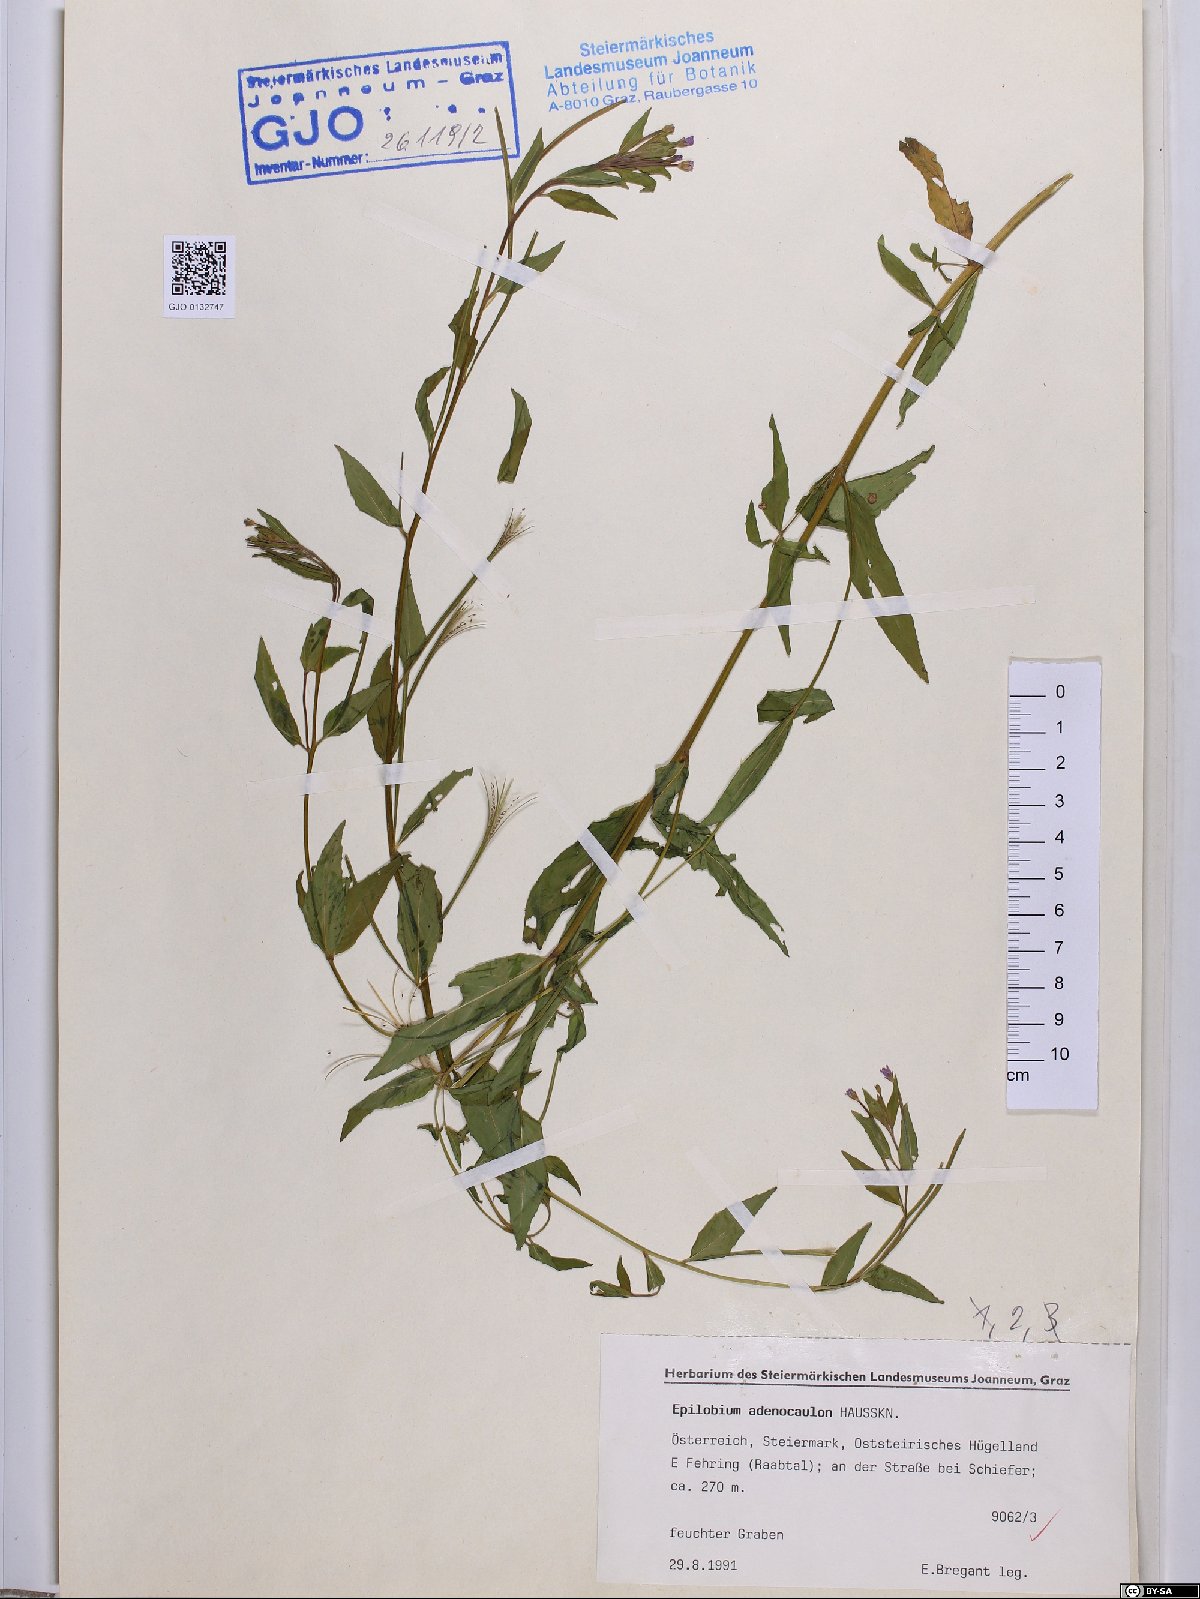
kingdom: Plantae
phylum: Tracheophyta
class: Magnoliopsida
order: Myrtales
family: Onagraceae
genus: Epilobium
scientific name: Epilobium ciliatum
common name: American willowherb
